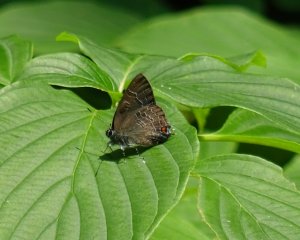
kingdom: Animalia
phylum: Arthropoda
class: Insecta
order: Lepidoptera
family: Lycaenidae
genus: Satyrium
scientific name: Satyrium calanus
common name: Banded Hairstreak
